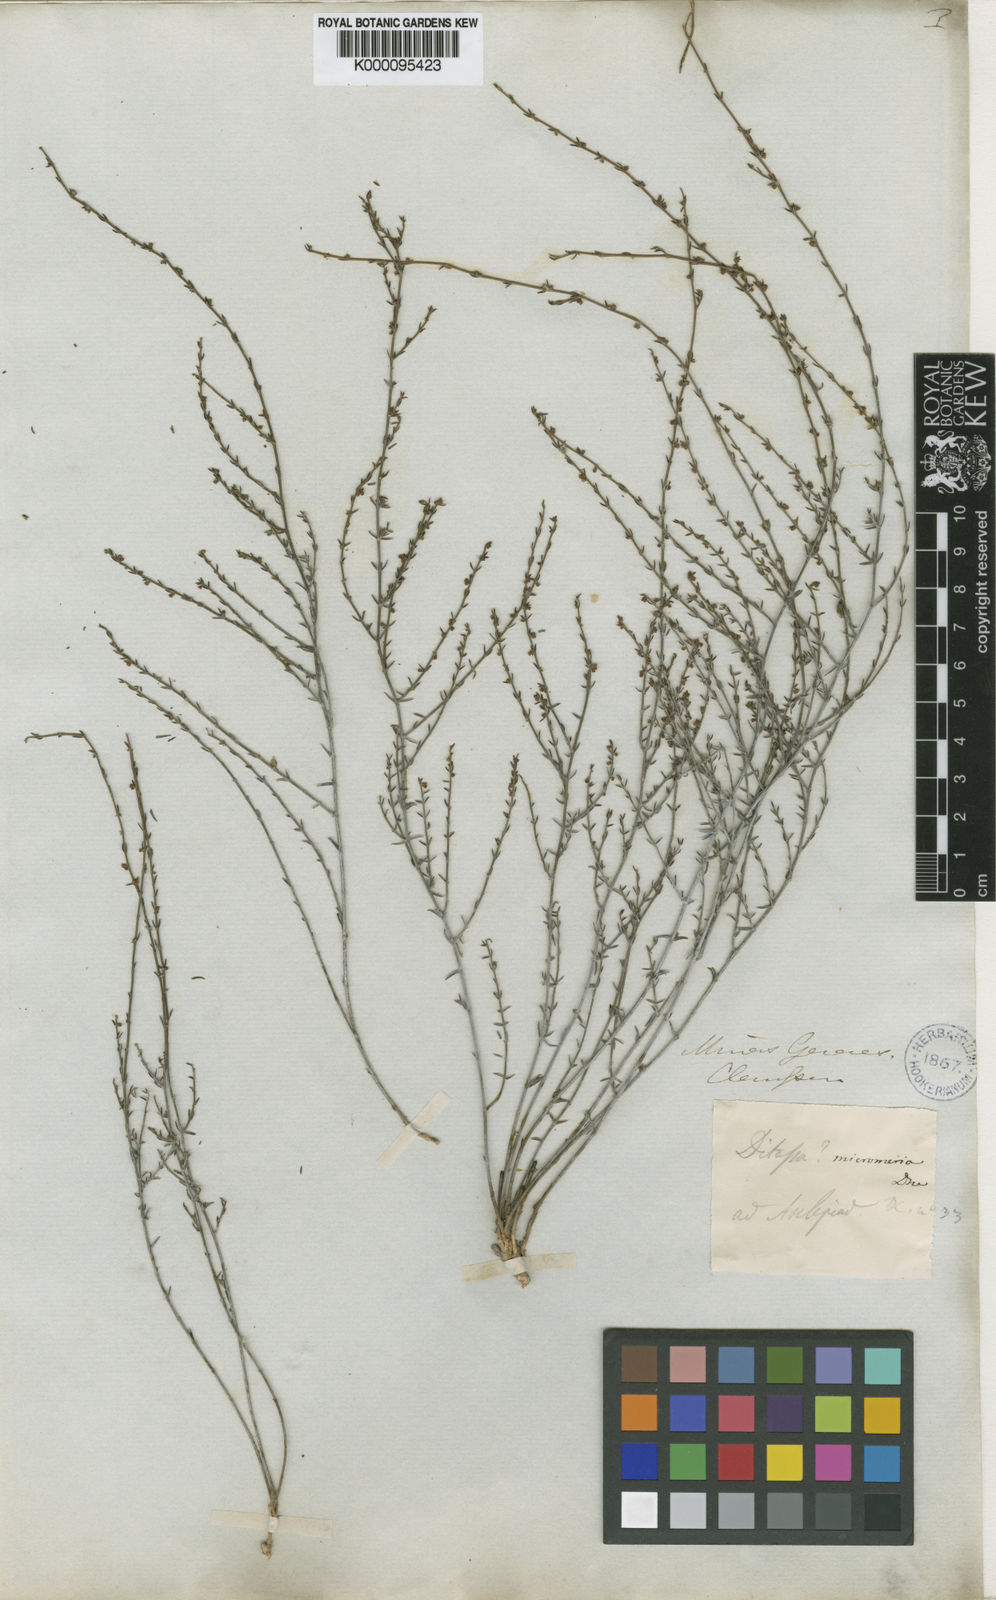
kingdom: Plantae
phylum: Tracheophyta
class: Magnoliopsida
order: Gentianales
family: Apocynaceae
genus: Minaria
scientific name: Minaria micromeria
